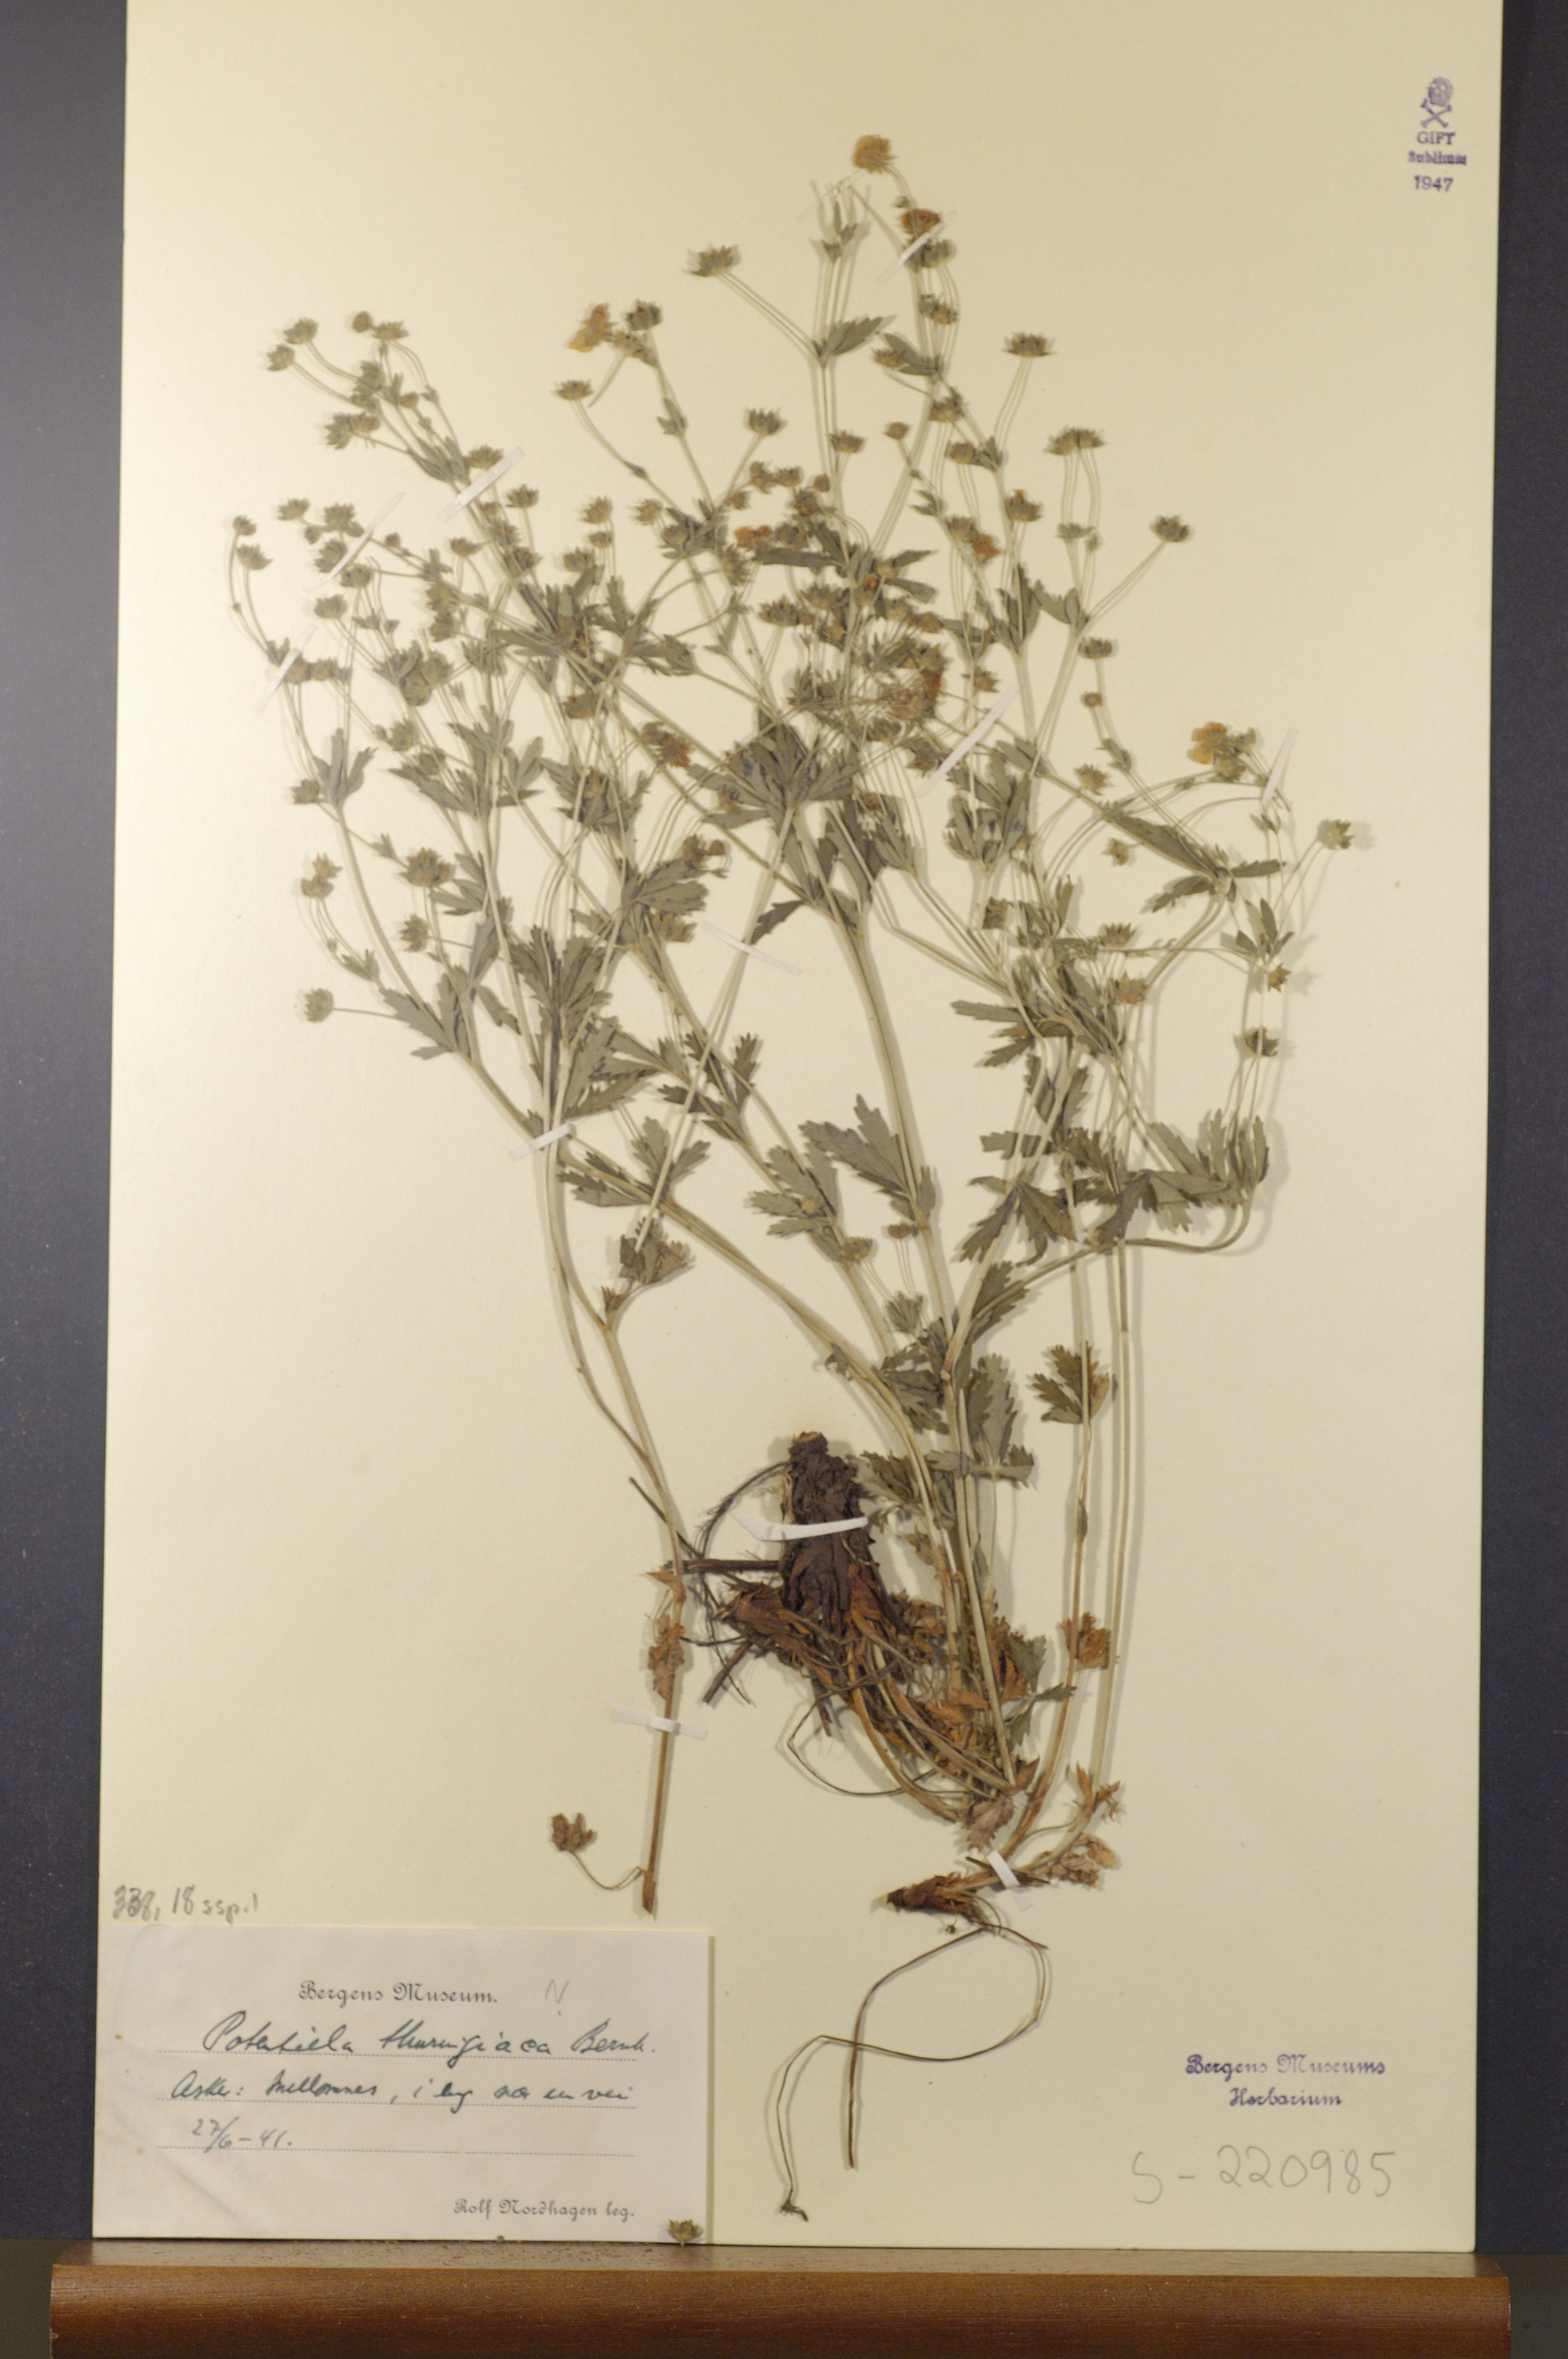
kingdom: Plantae
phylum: Tracheophyta
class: Magnoliopsida
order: Rosales
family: Rosaceae
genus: Potentilla
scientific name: Potentilla thuringiaca
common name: European cinquefoil
